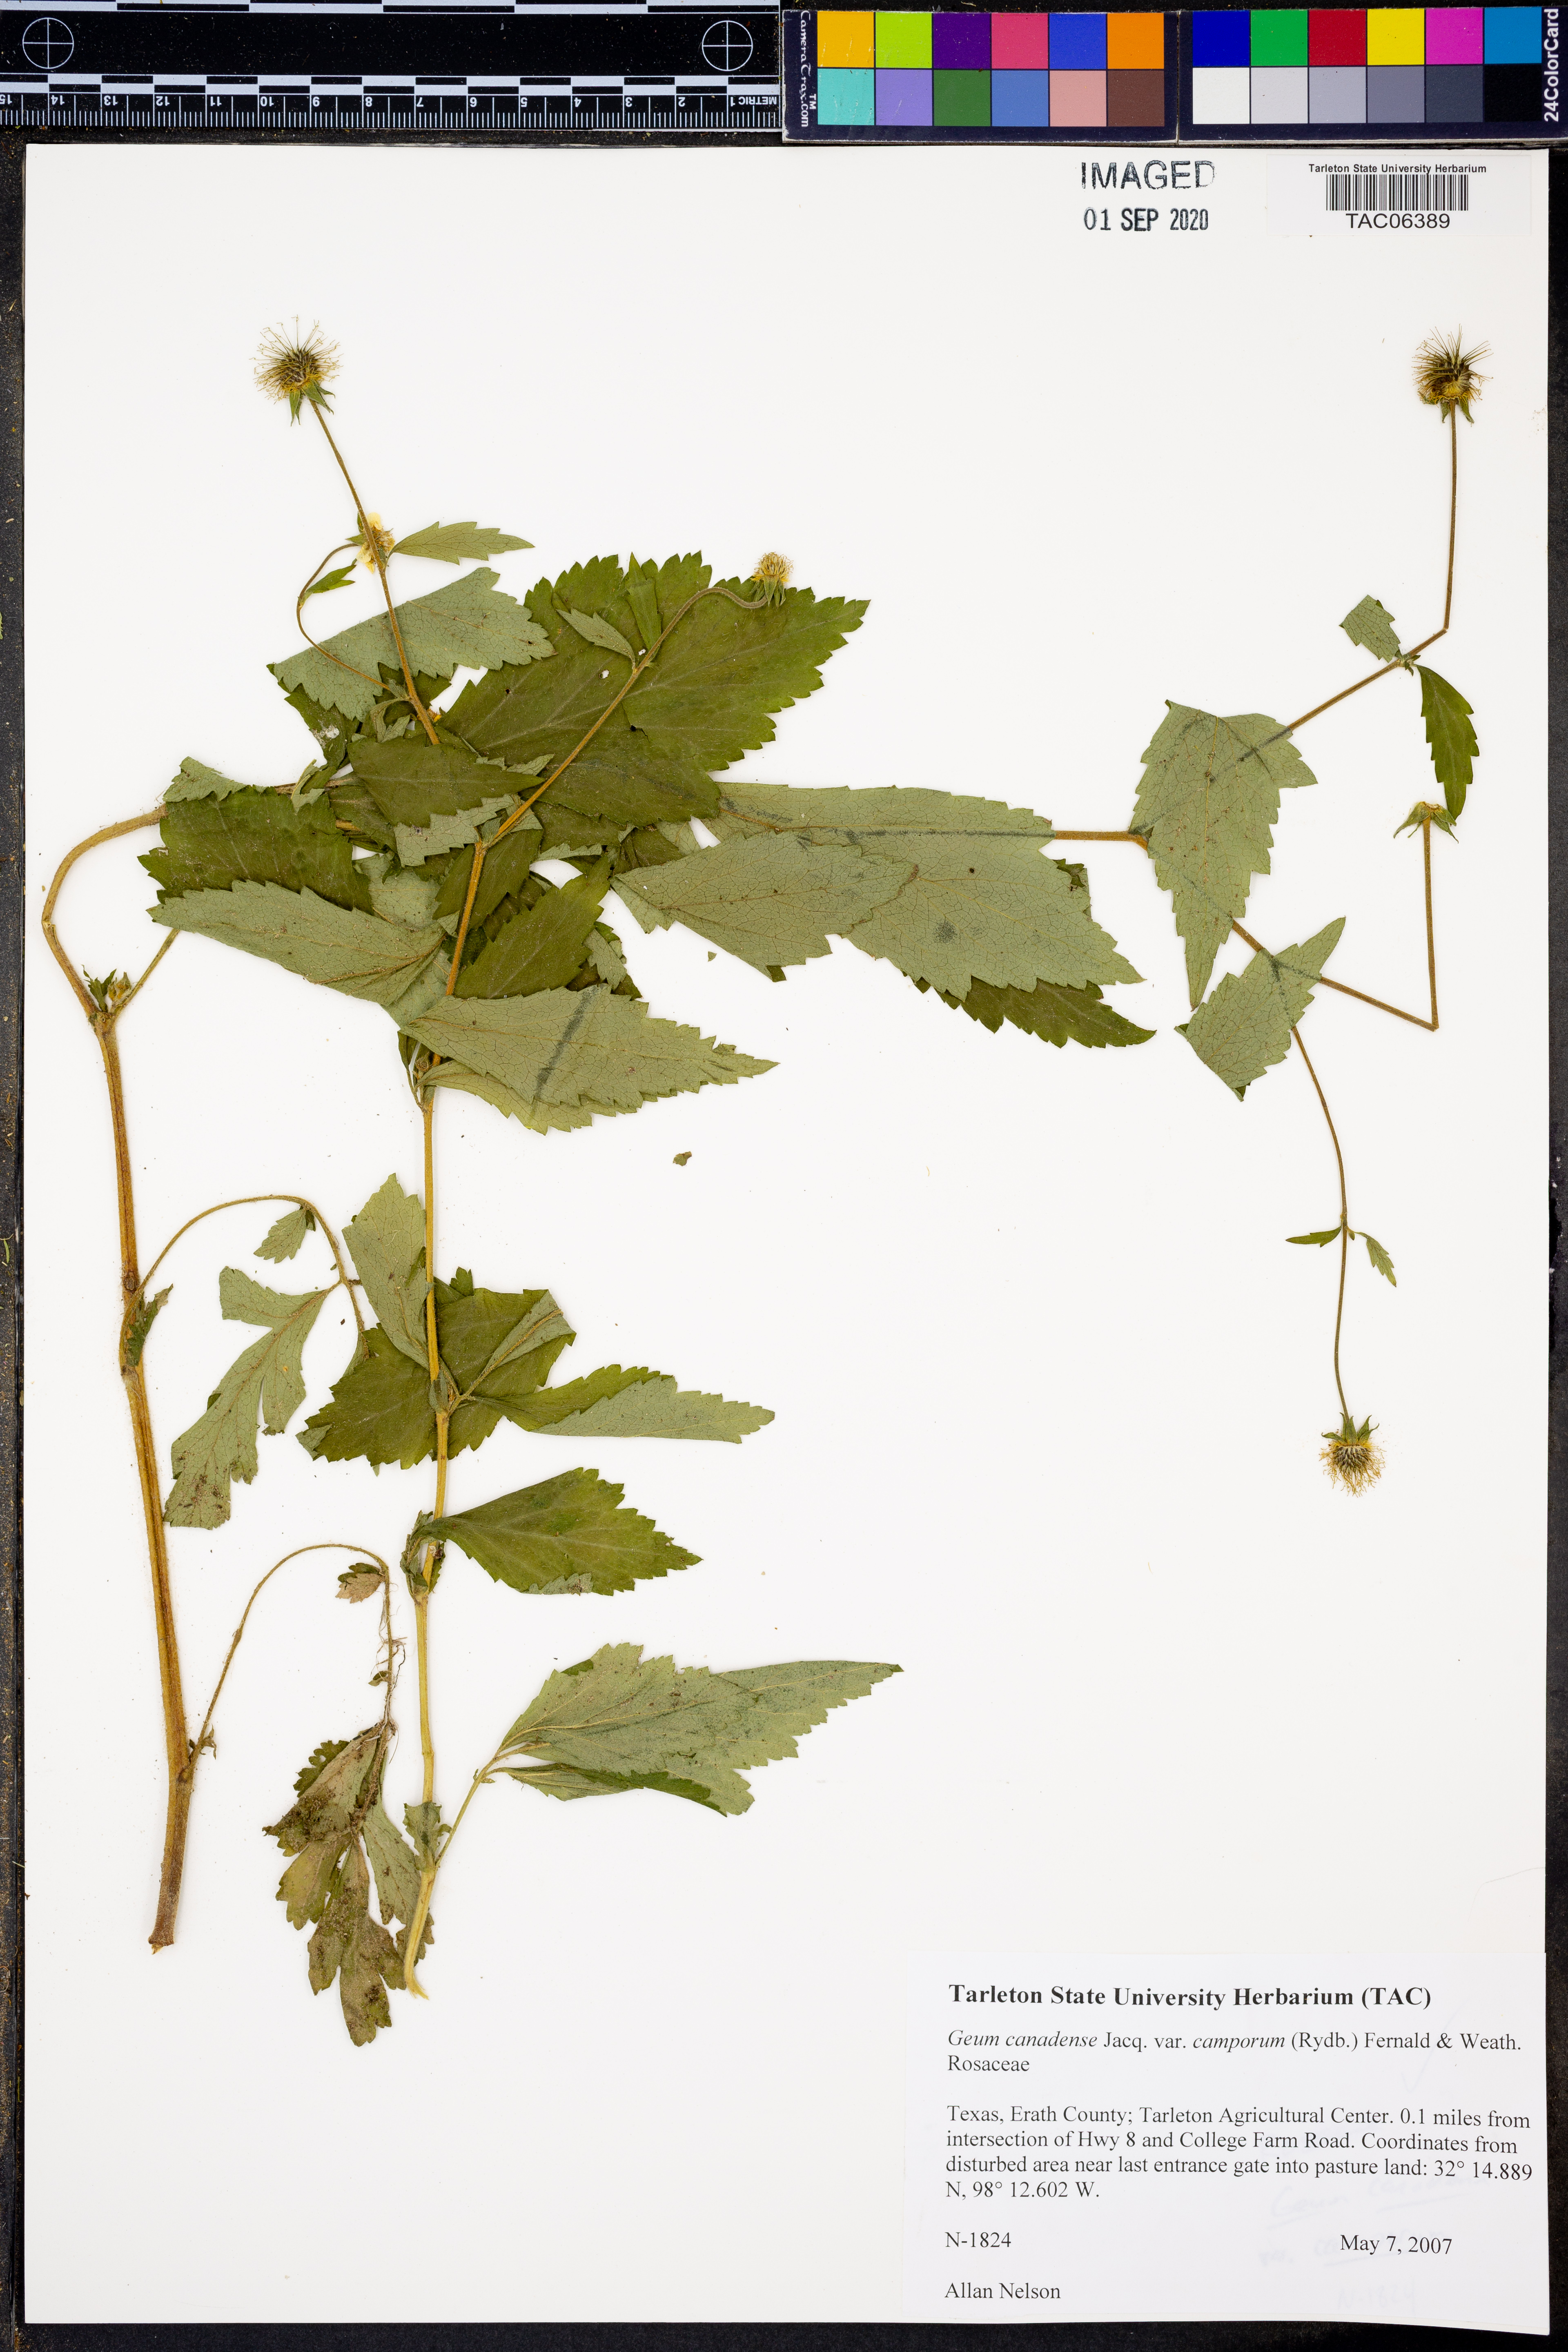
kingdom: Plantae
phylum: Tracheophyta
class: Magnoliopsida
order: Rosales
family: Rosaceae
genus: Geum
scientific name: Geum canadense
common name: White avens
